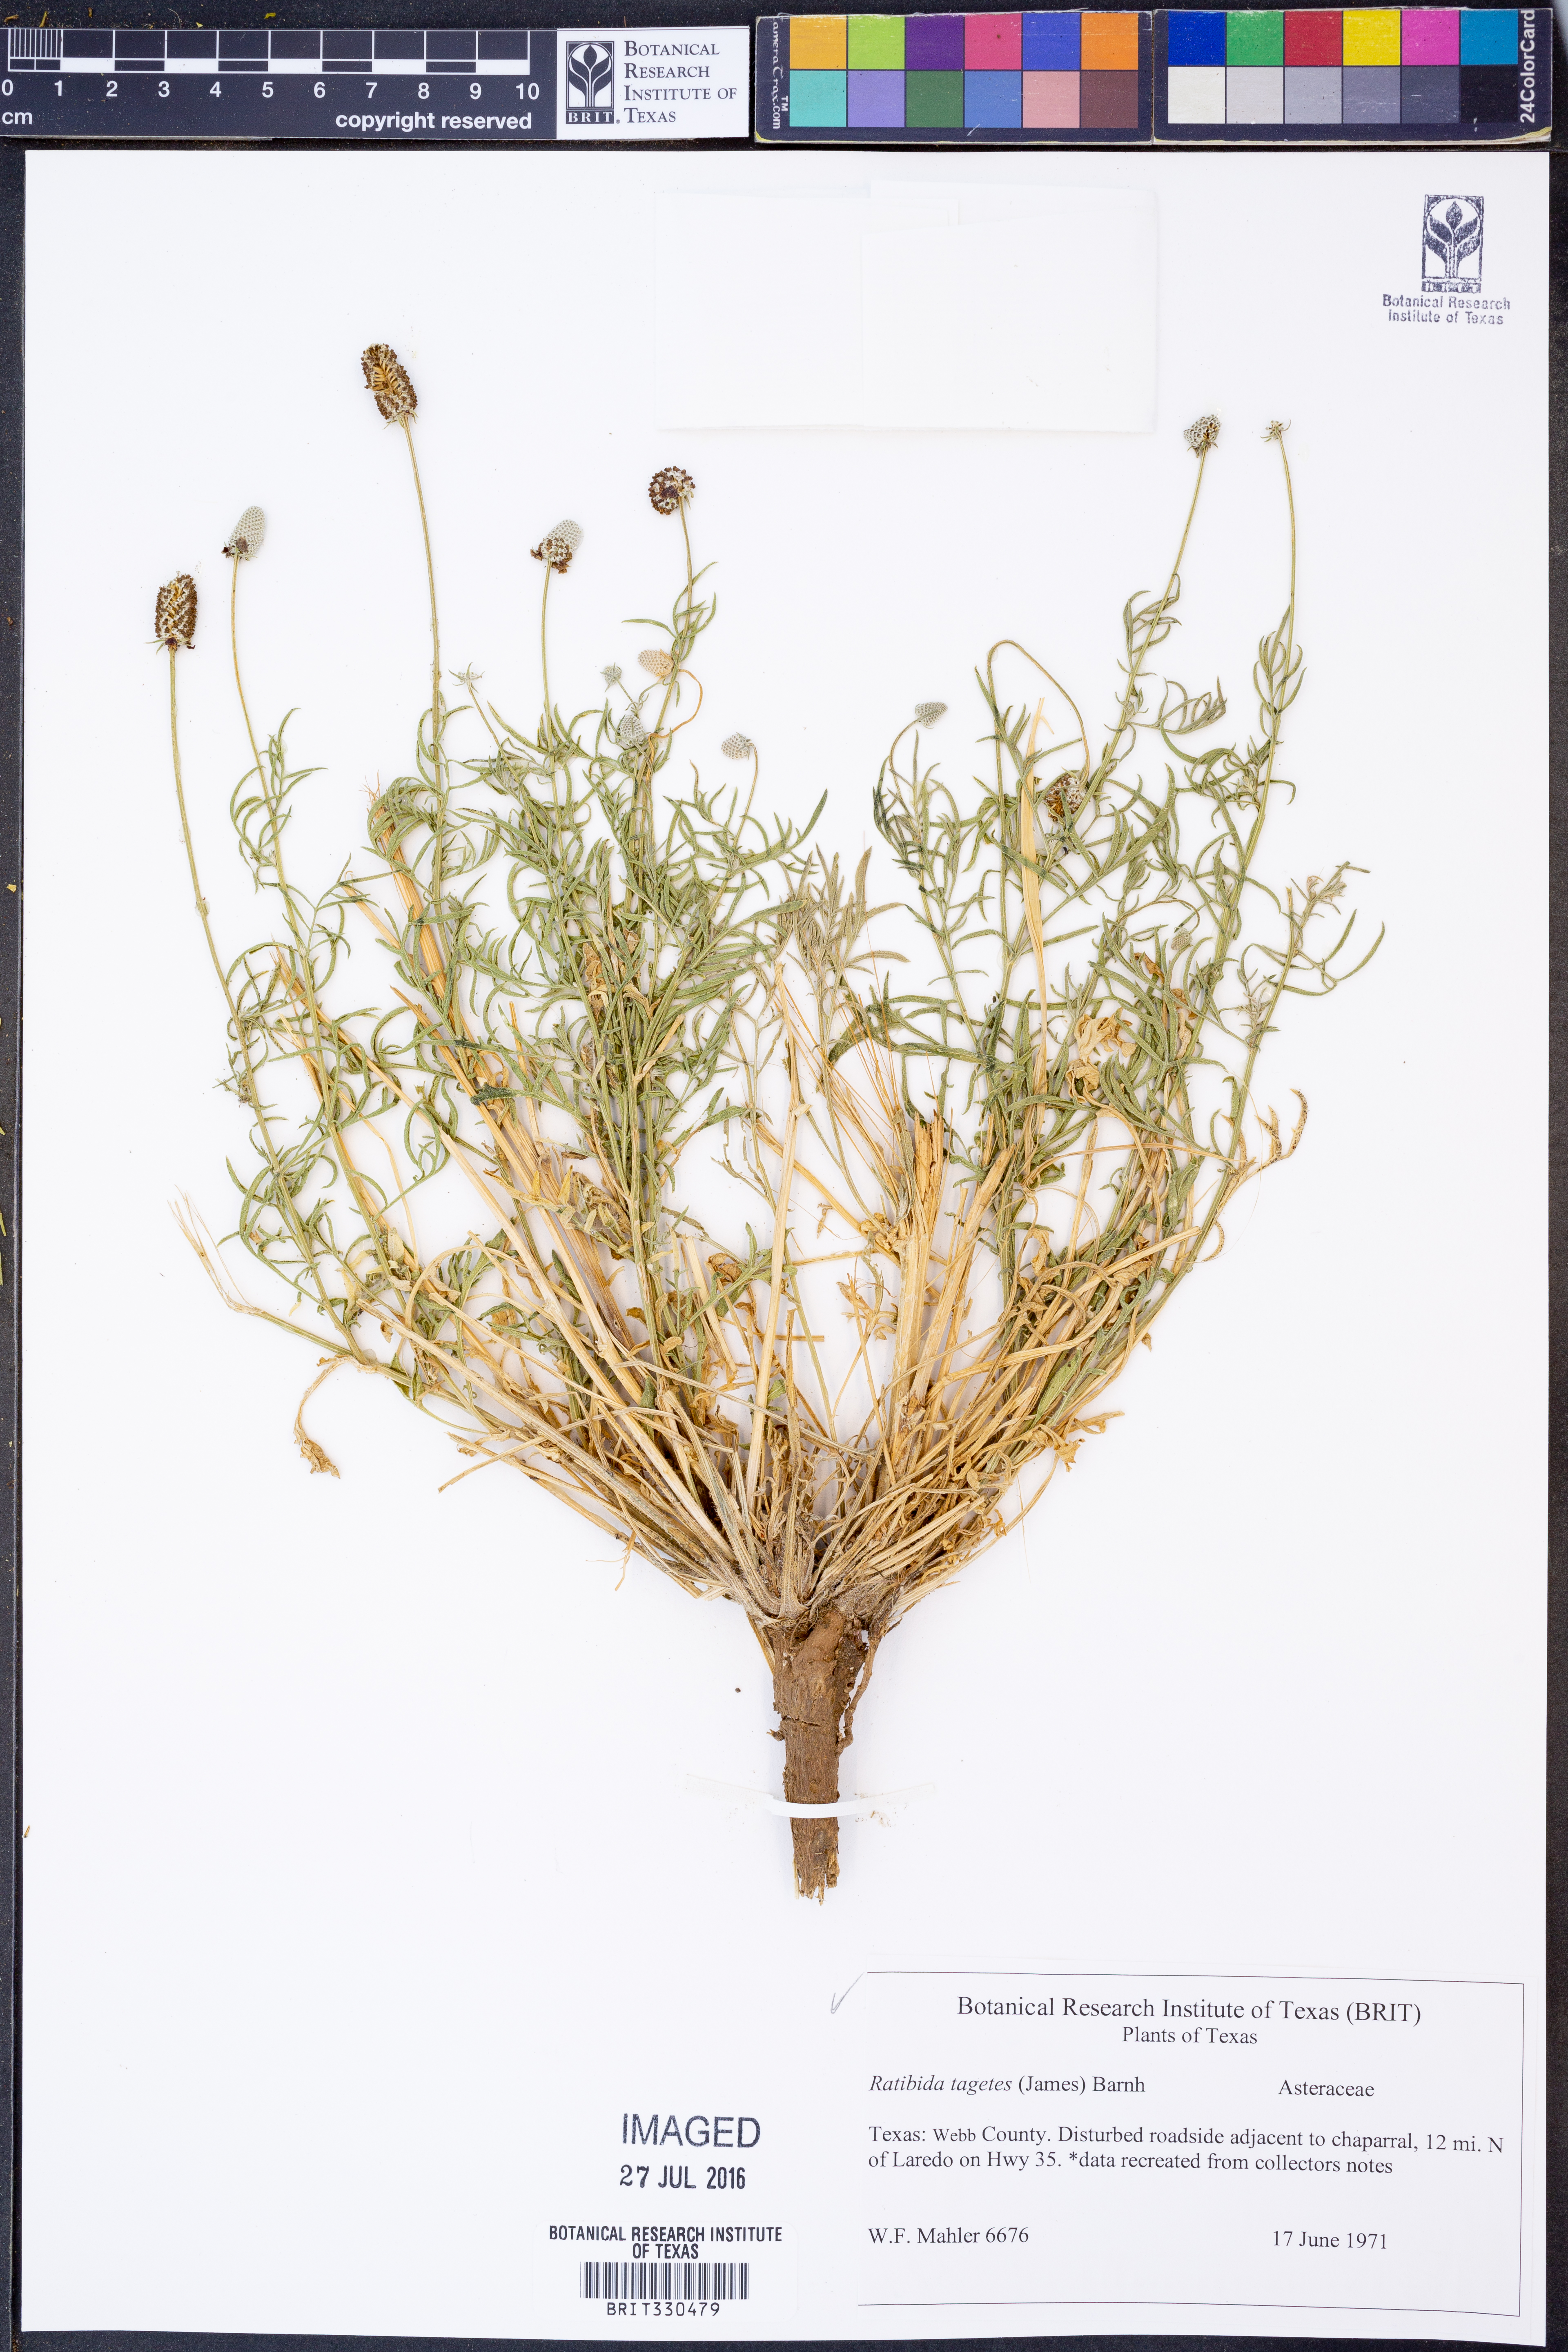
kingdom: Plantae
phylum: Tracheophyta
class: Magnoliopsida
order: Asterales
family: Asteraceae
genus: Ratibida
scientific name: Ratibida tagetes
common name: Green mexican-hat
